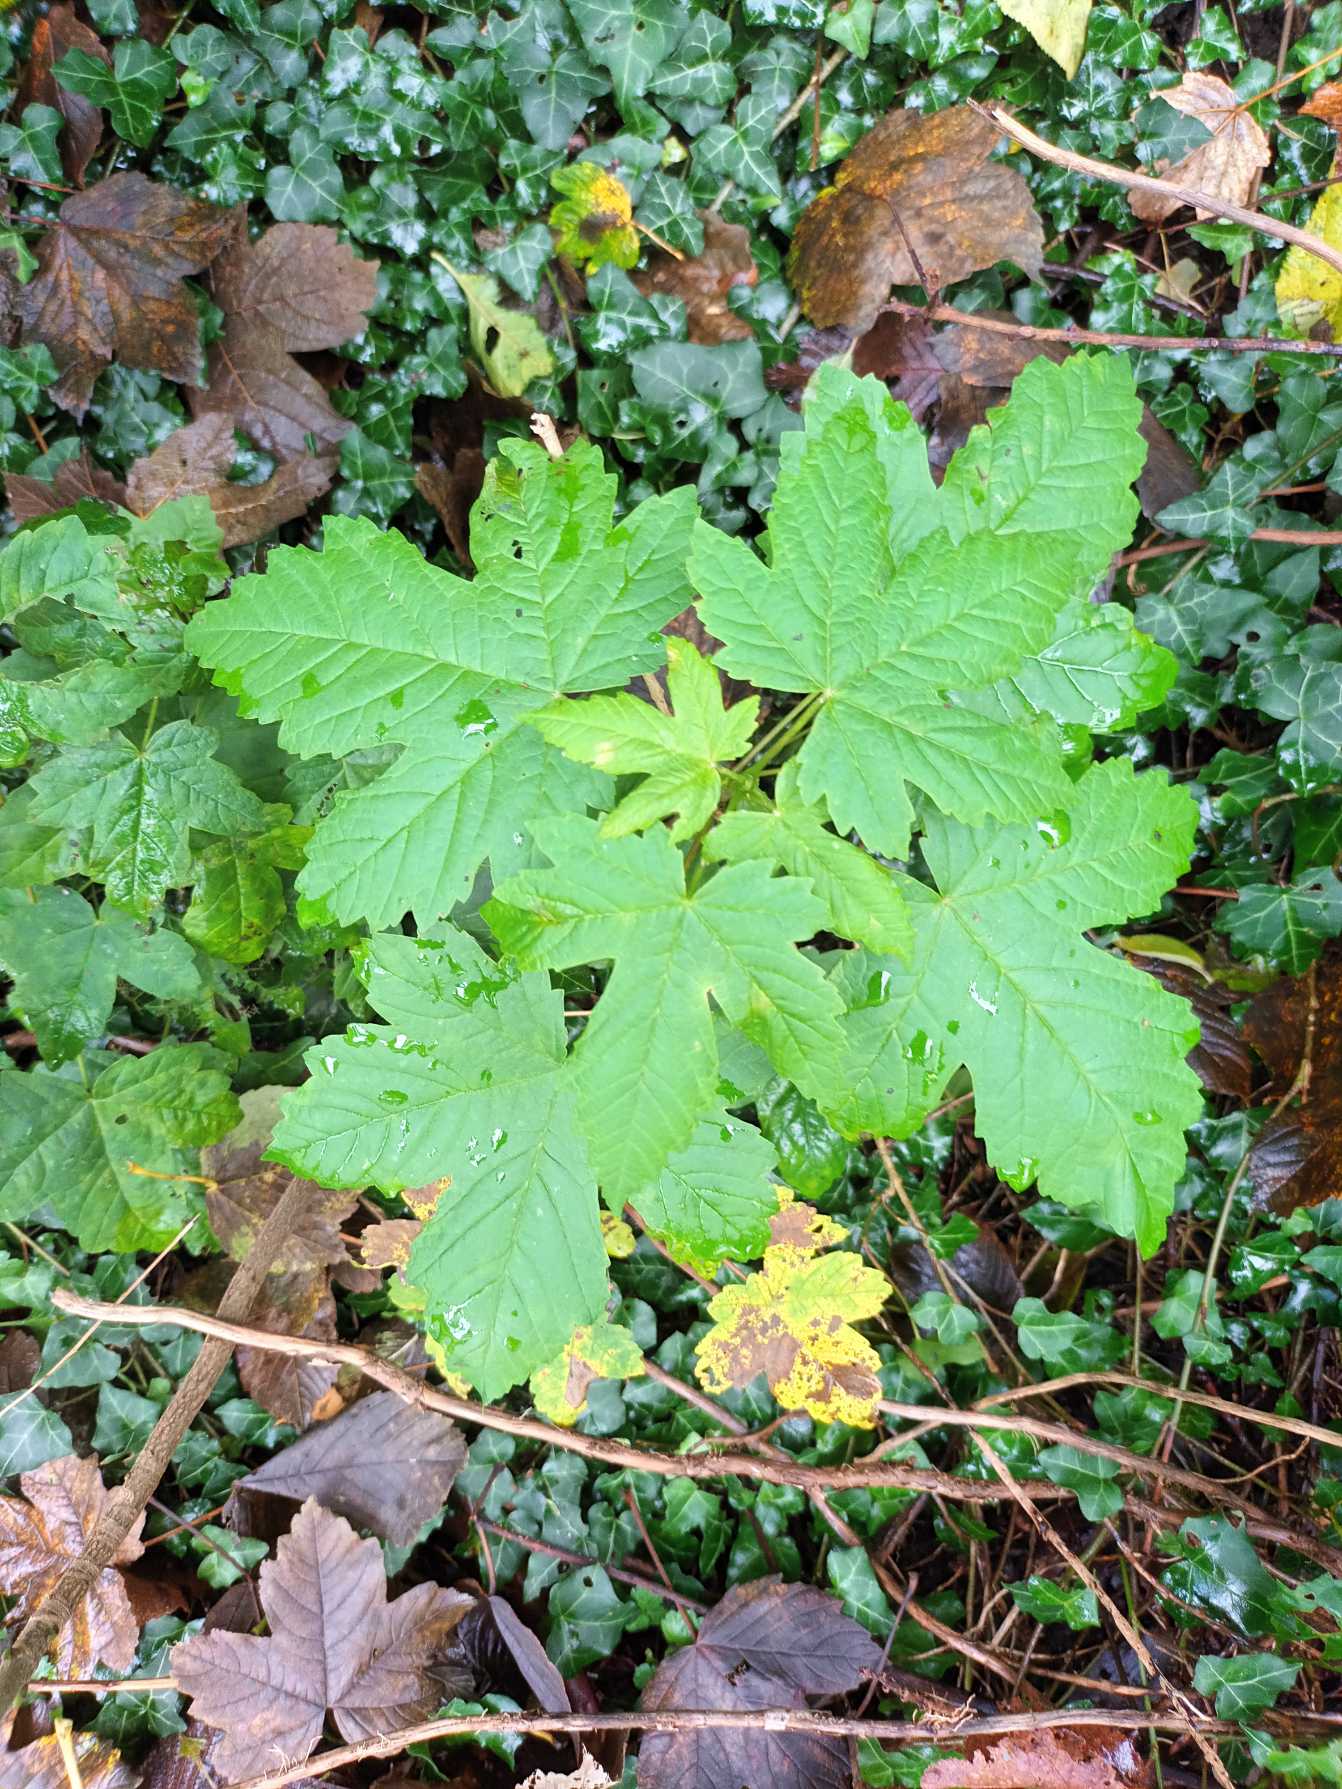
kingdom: Plantae
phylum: Tracheophyta
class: Magnoliopsida
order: Sapindales
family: Sapindaceae
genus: Acer
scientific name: Acer pseudoplatanus
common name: Ahorn
